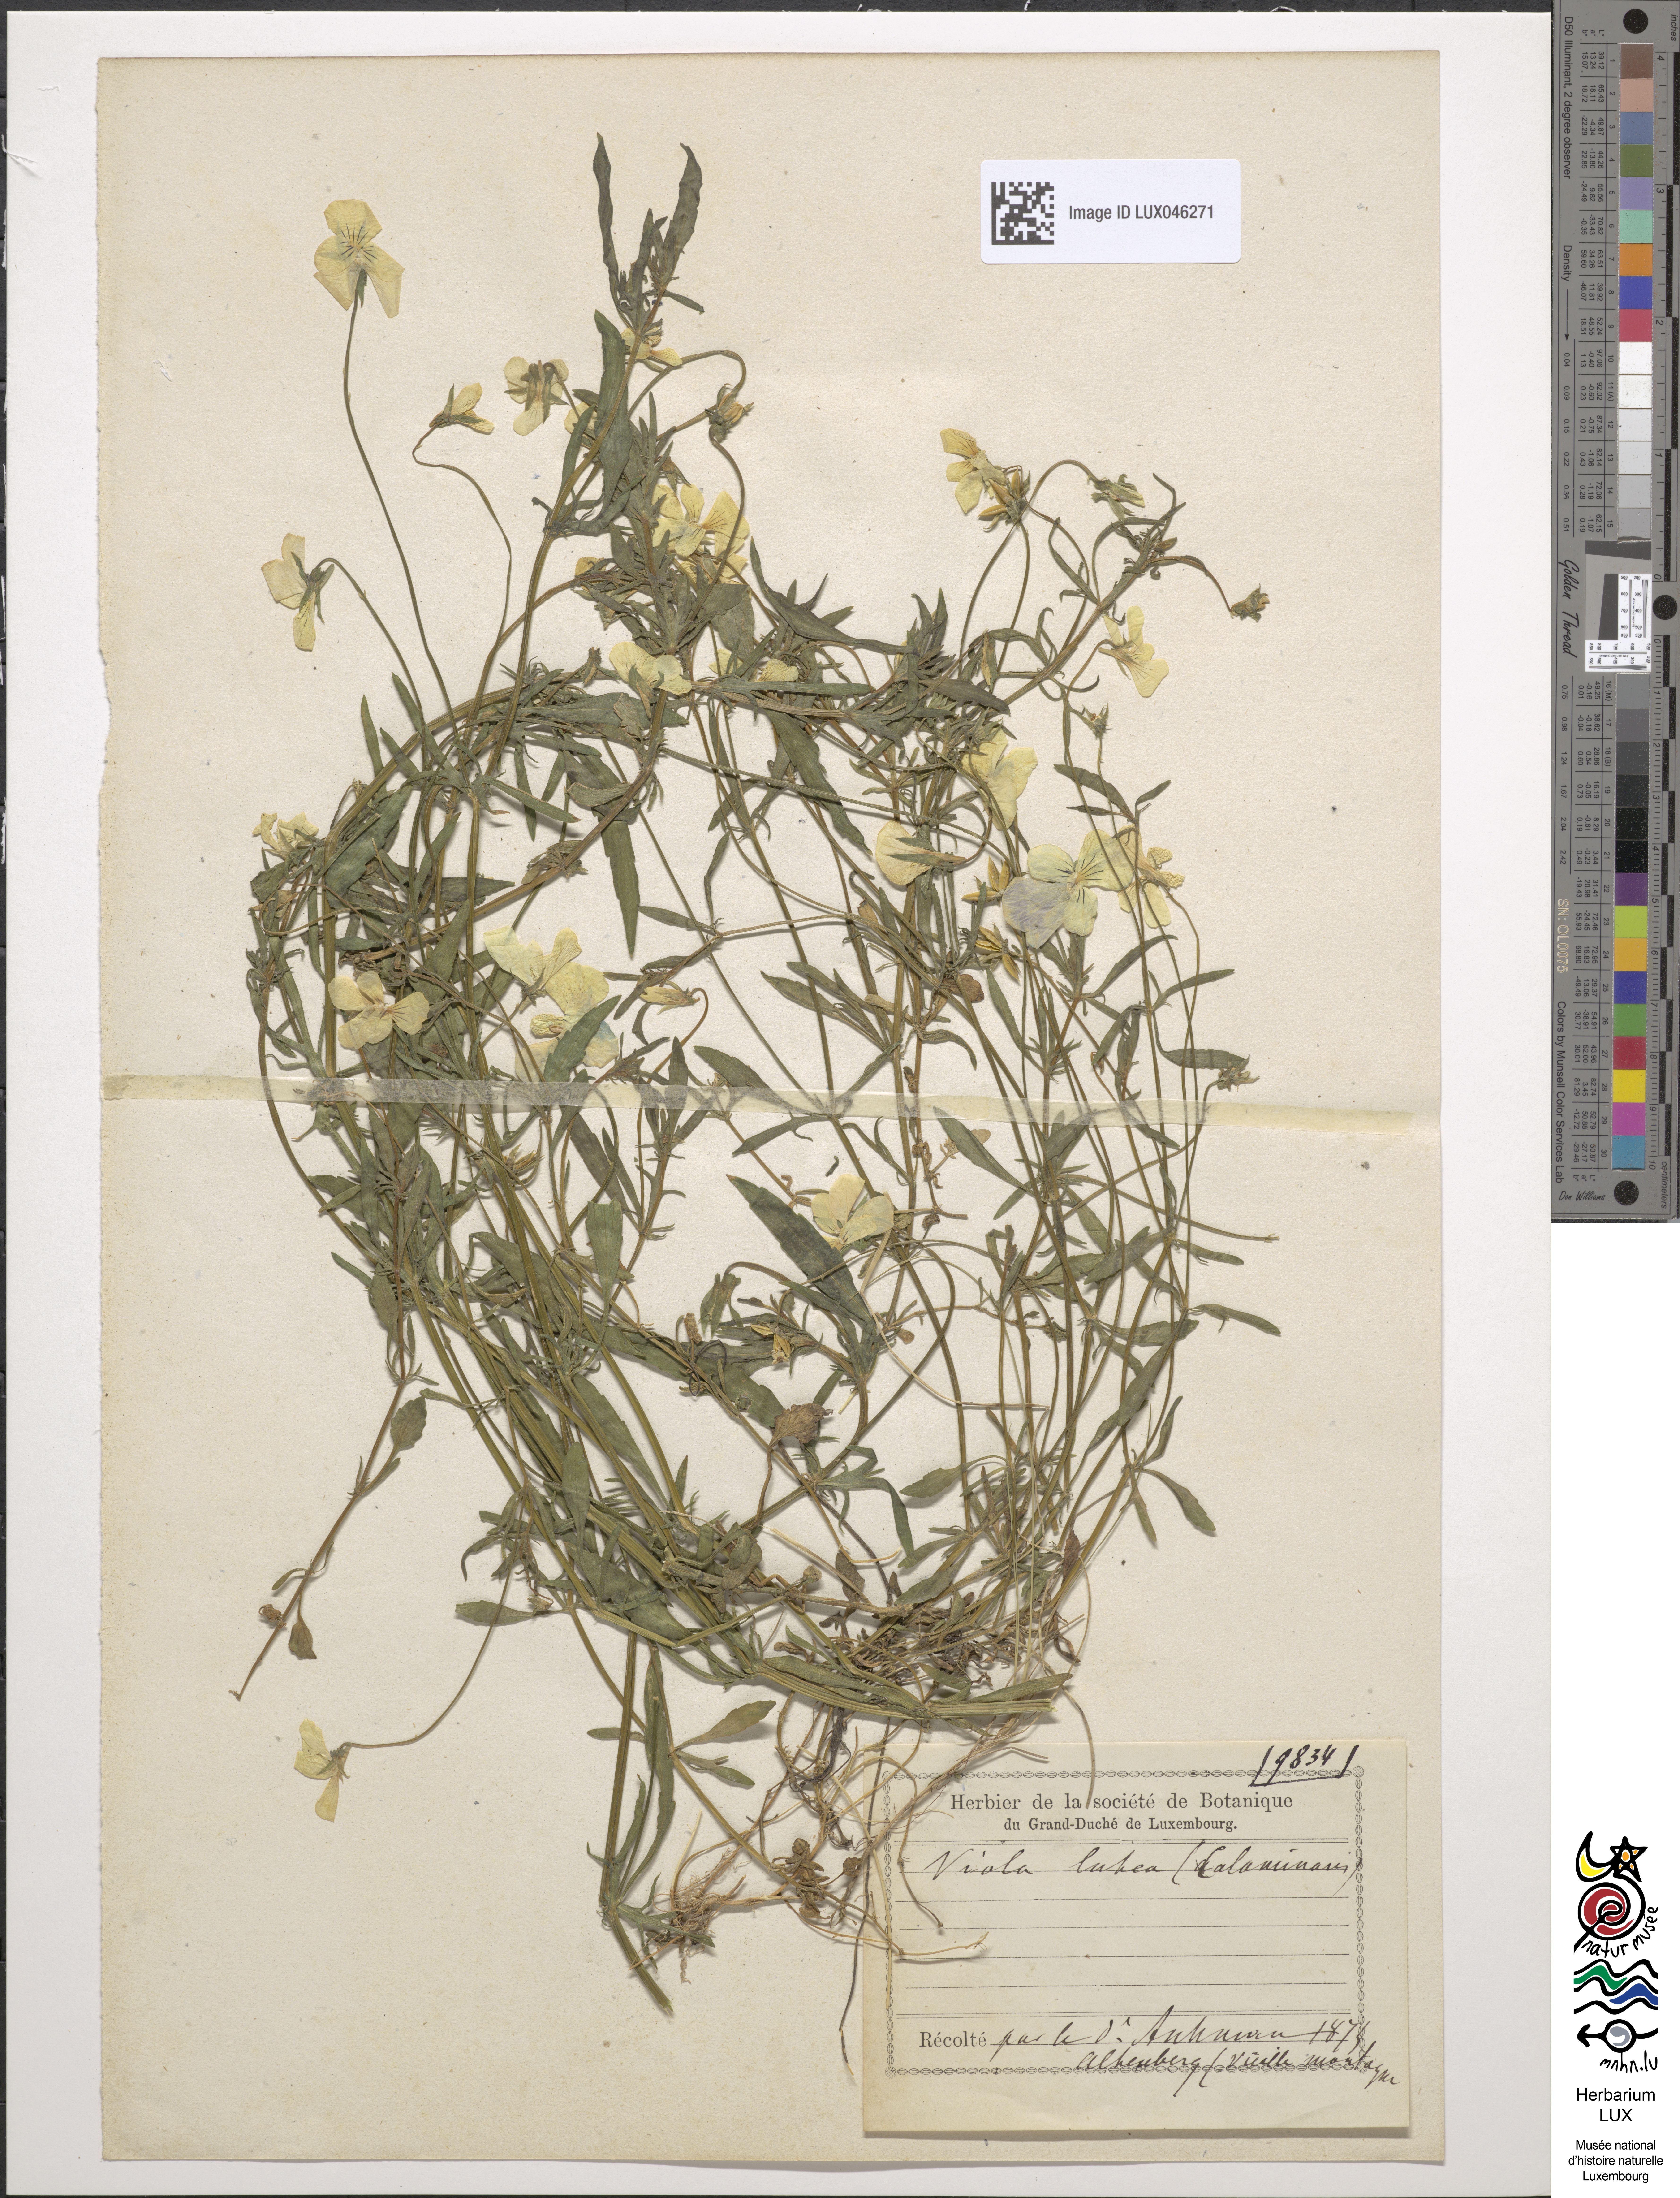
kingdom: Plantae
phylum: Tracheophyta
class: Magnoliopsida
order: Malpighiales
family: Violaceae
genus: Viola
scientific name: Viola lutea
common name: Mountain pansy
